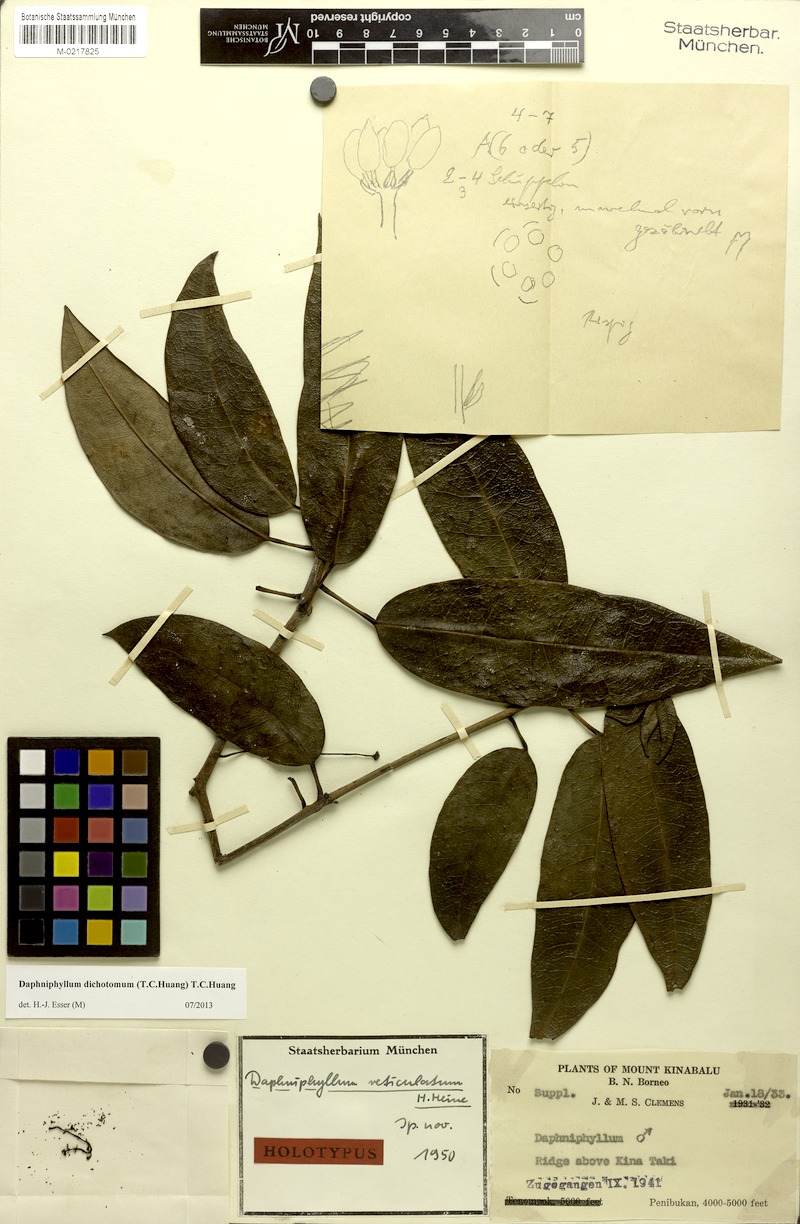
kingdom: Plantae
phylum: Tracheophyta
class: Magnoliopsida
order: Saxifragales
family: Daphniphyllaceae
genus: Daphniphyllum
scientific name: Daphniphyllum dichotomum
